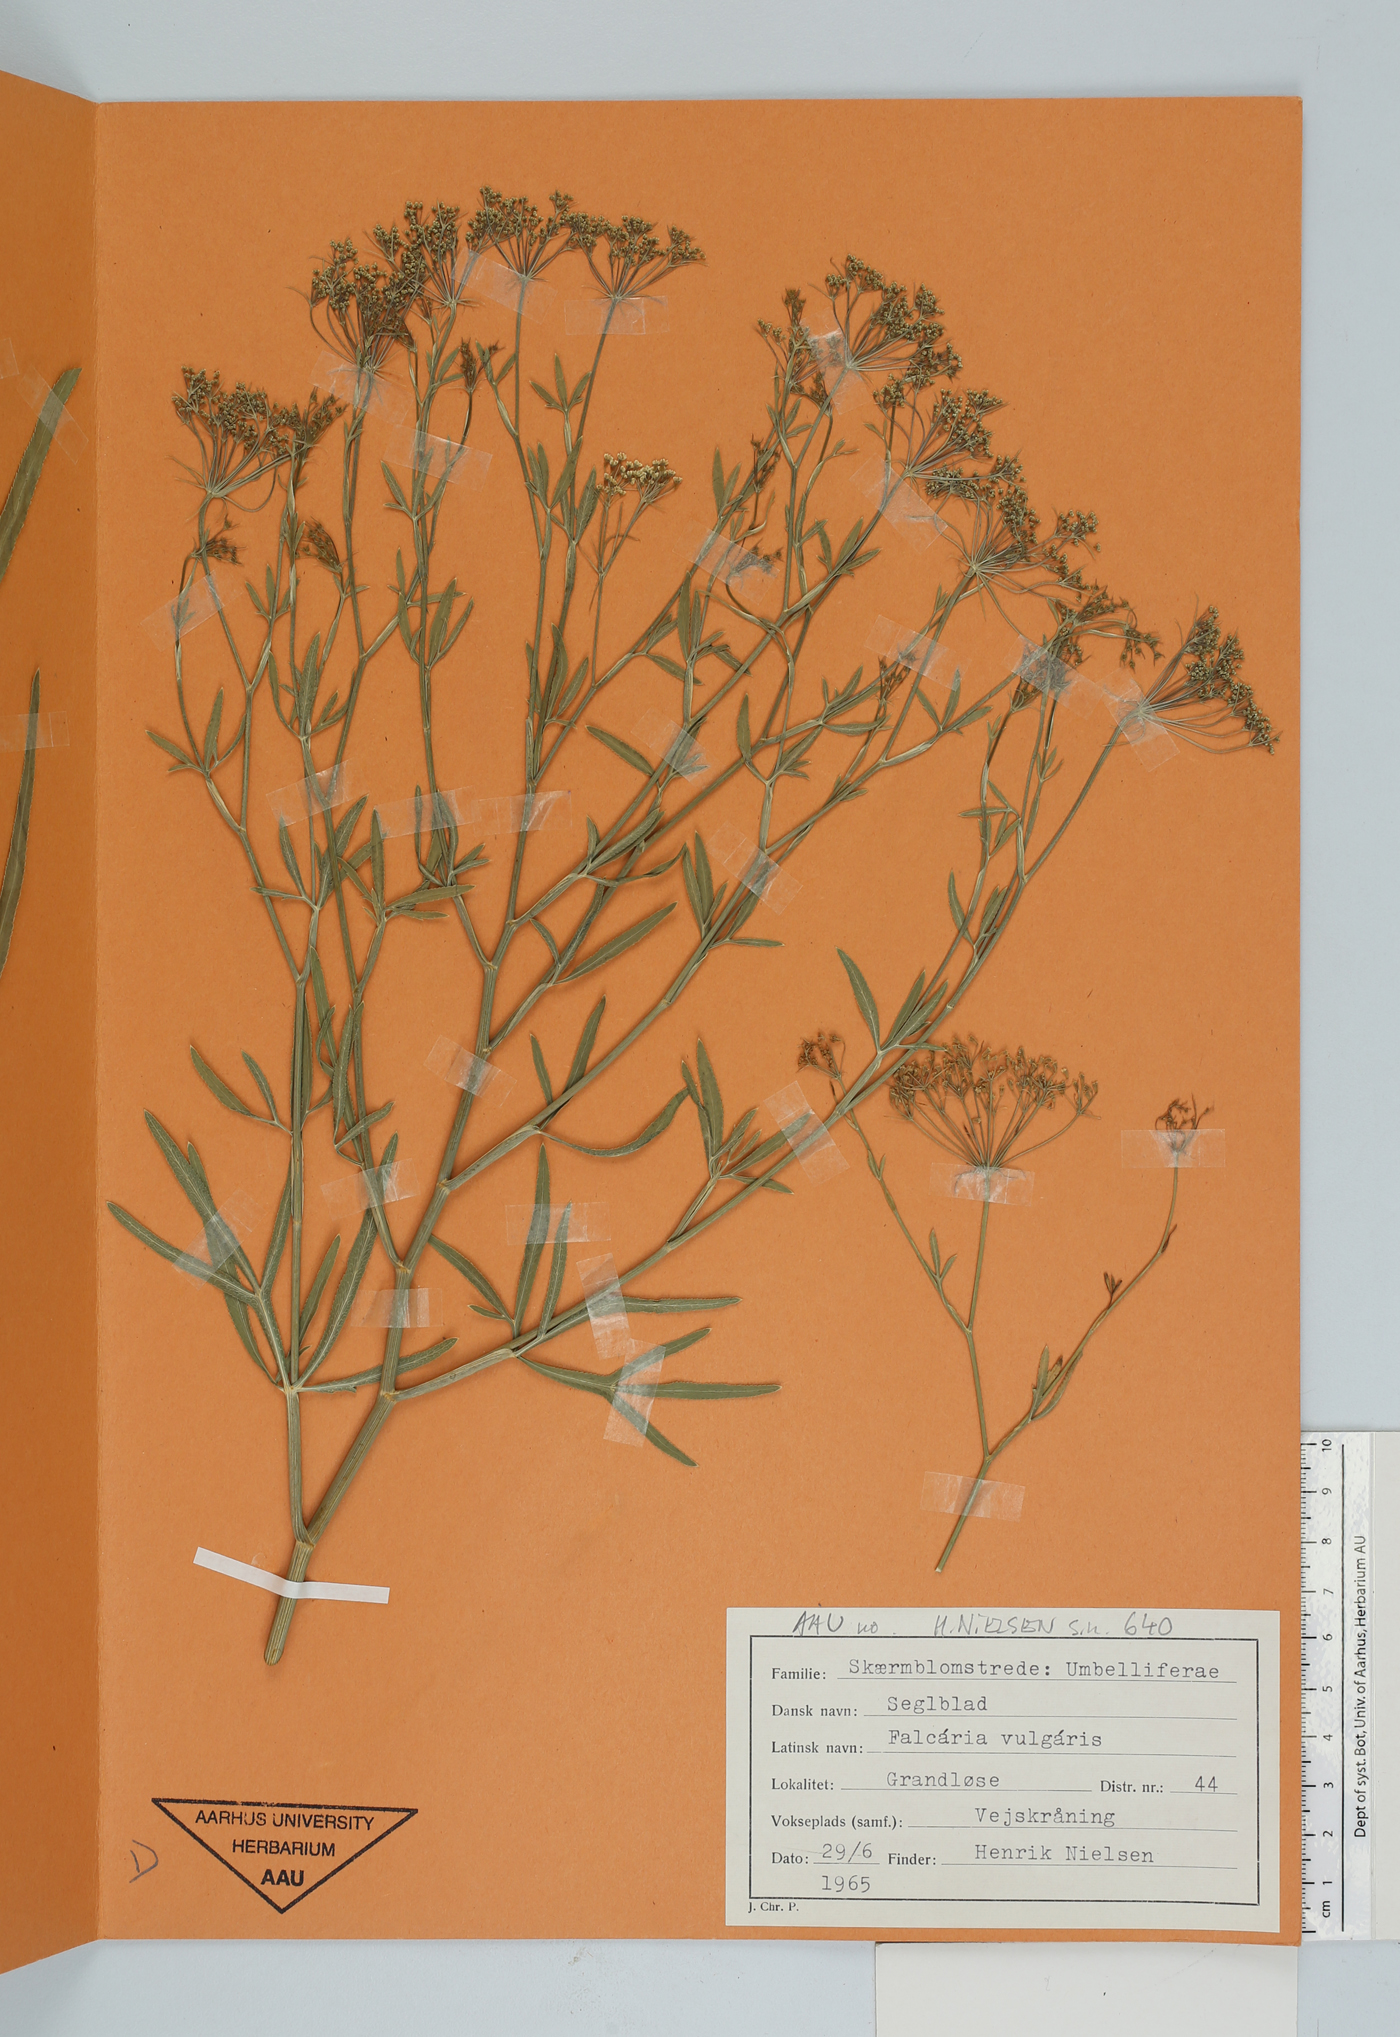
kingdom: Plantae
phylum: Tracheophyta
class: Magnoliopsida
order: Apiales
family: Apiaceae
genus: Falcaria
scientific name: Falcaria vulgaris
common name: Longleaf
